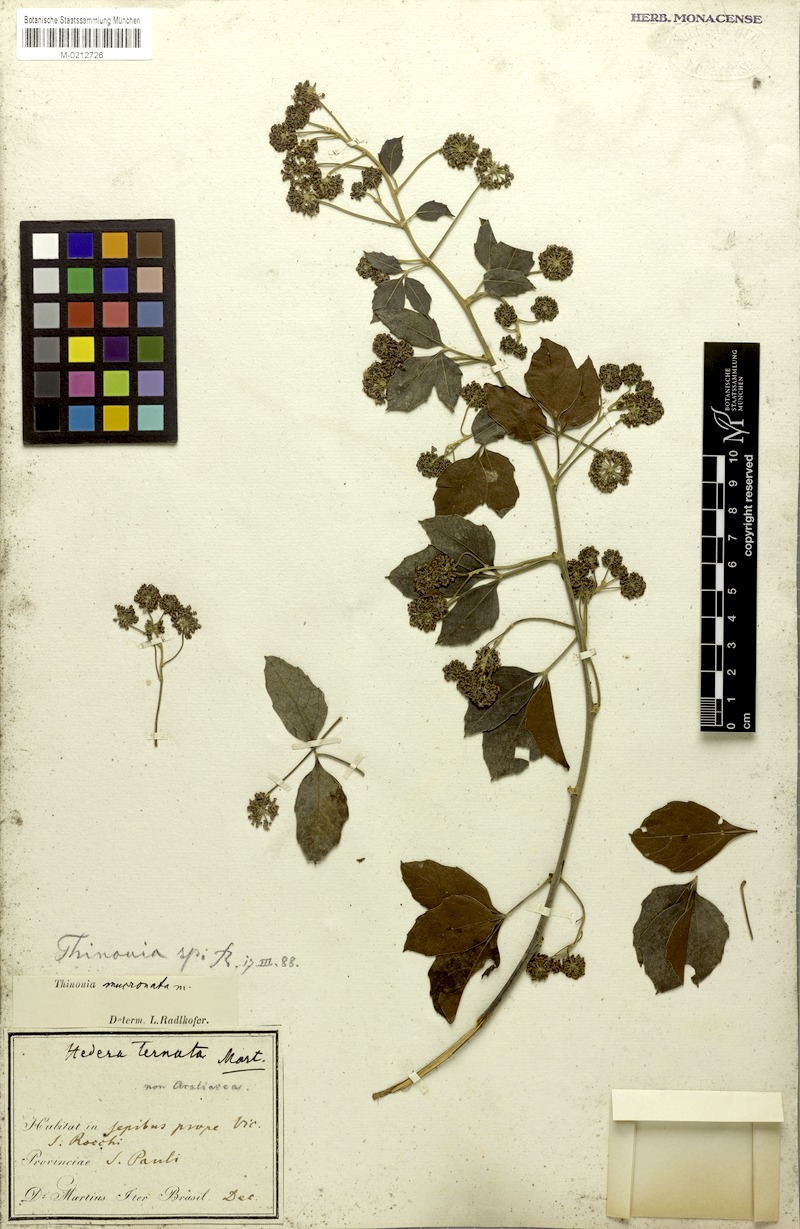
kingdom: Plantae
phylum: Tracheophyta
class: Magnoliopsida
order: Sapindales
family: Sapindaceae
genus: Thinouia
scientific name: Thinouia mucronata
